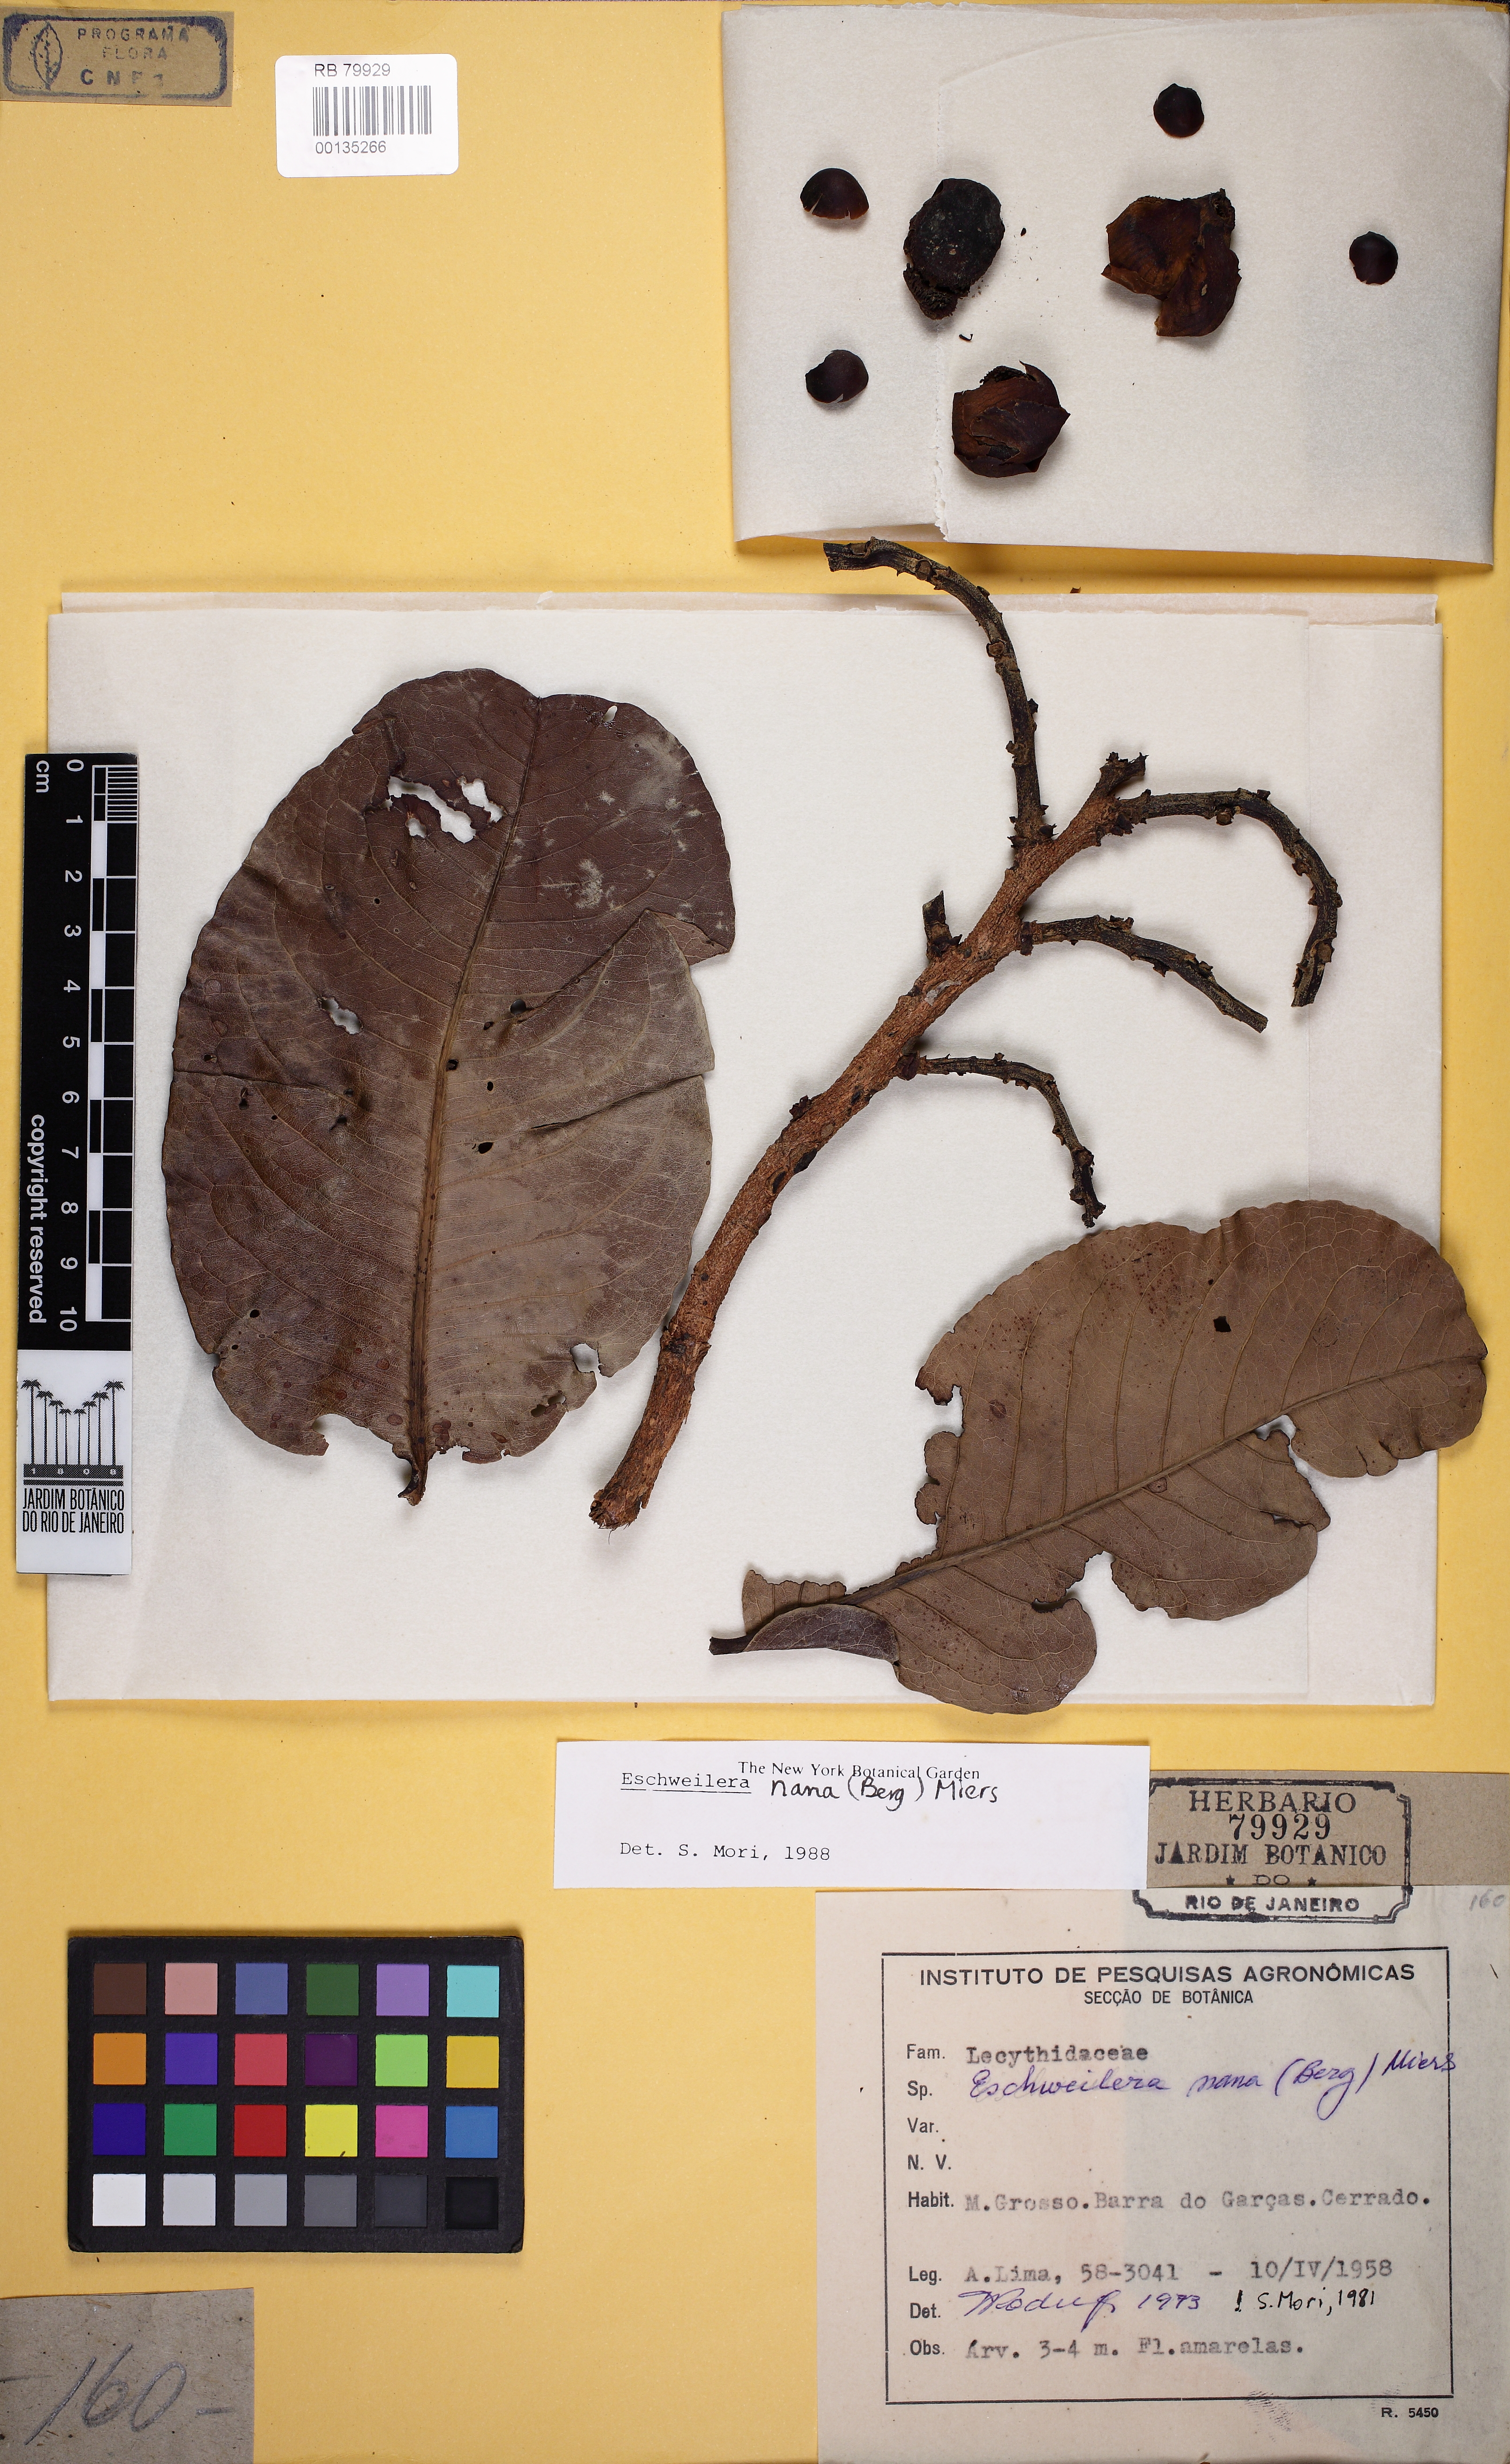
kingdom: Plantae
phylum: Tracheophyta
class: Magnoliopsida
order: Ericales
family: Lecythidaceae
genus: Eschweilera
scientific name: Eschweilera nana
